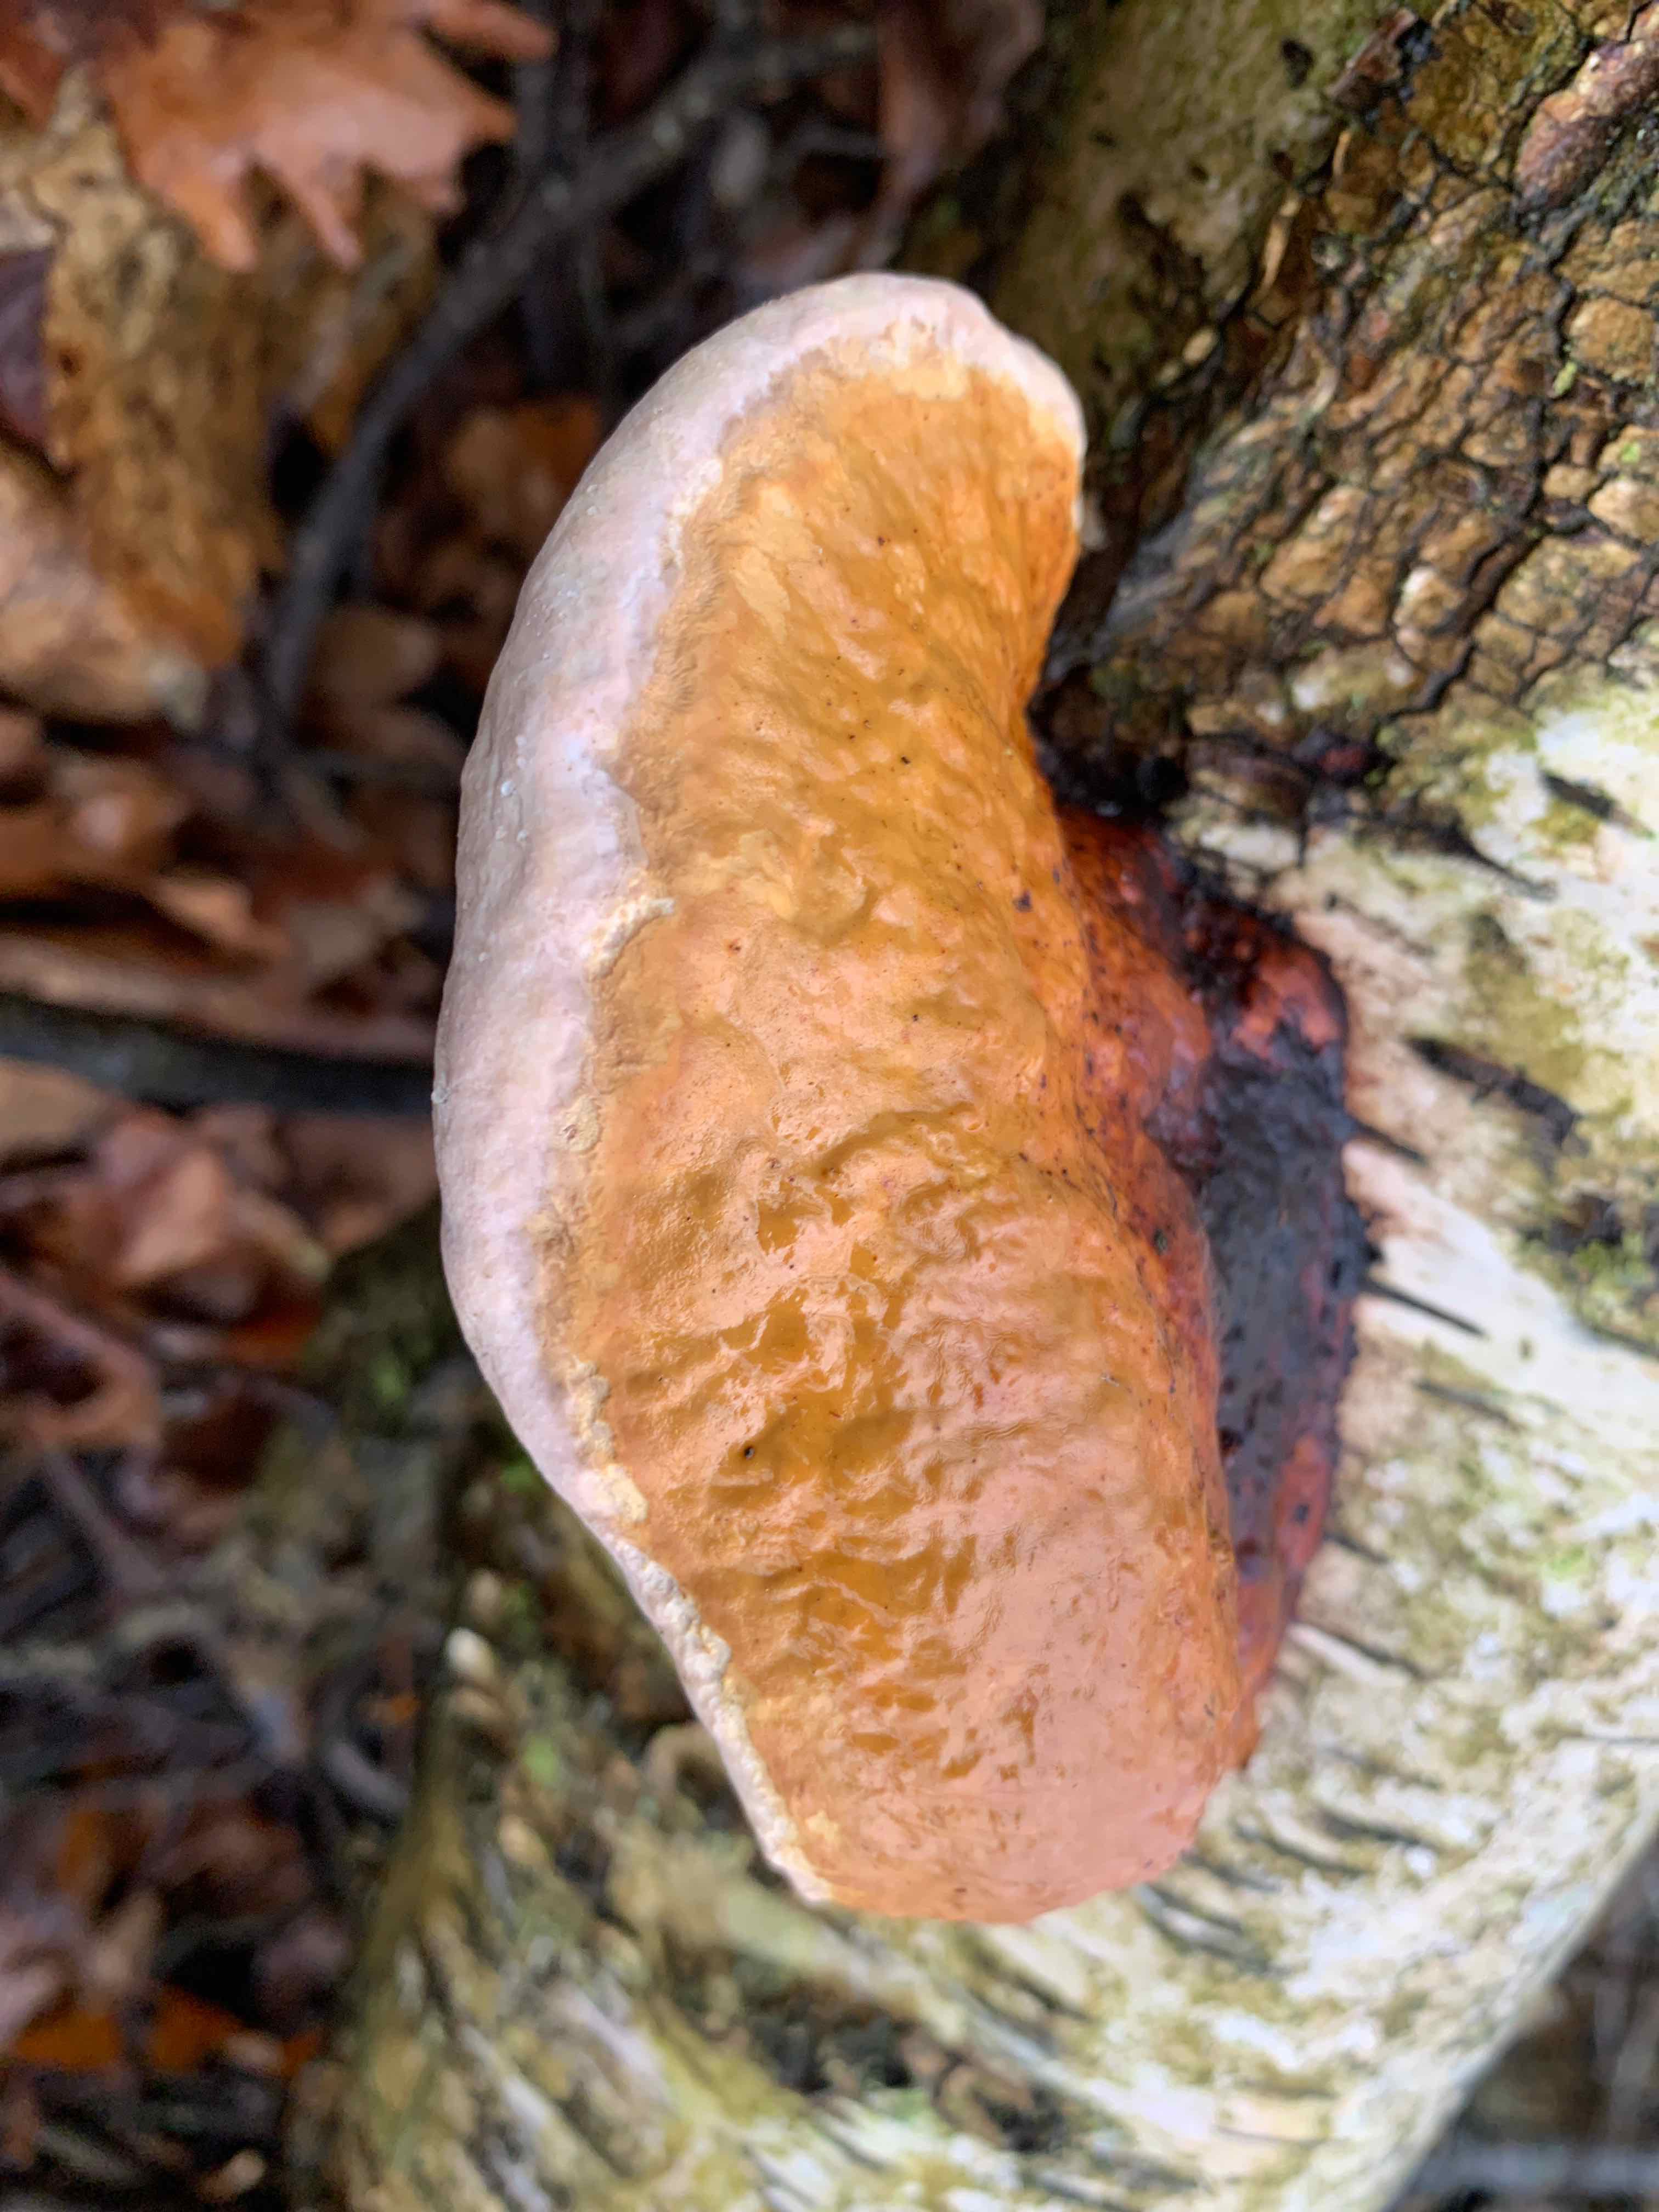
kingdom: Fungi
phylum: Basidiomycota
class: Agaricomycetes
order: Polyporales
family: Fomitopsidaceae
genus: Fomitopsis
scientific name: Fomitopsis pinicola
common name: randbæltet hovporesvamp
